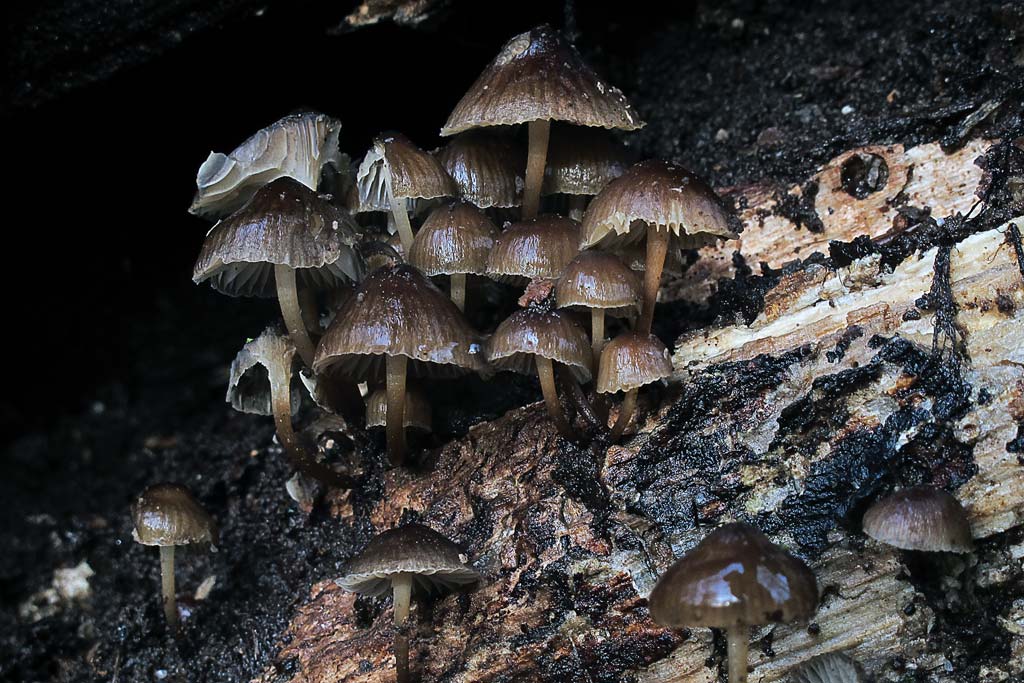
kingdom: Fungi
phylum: Basidiomycota
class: Agaricomycetes
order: Agaricales
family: Mycenaceae
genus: Mycena
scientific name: Mycena tintinnabulum
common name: vinter-huesvamp
